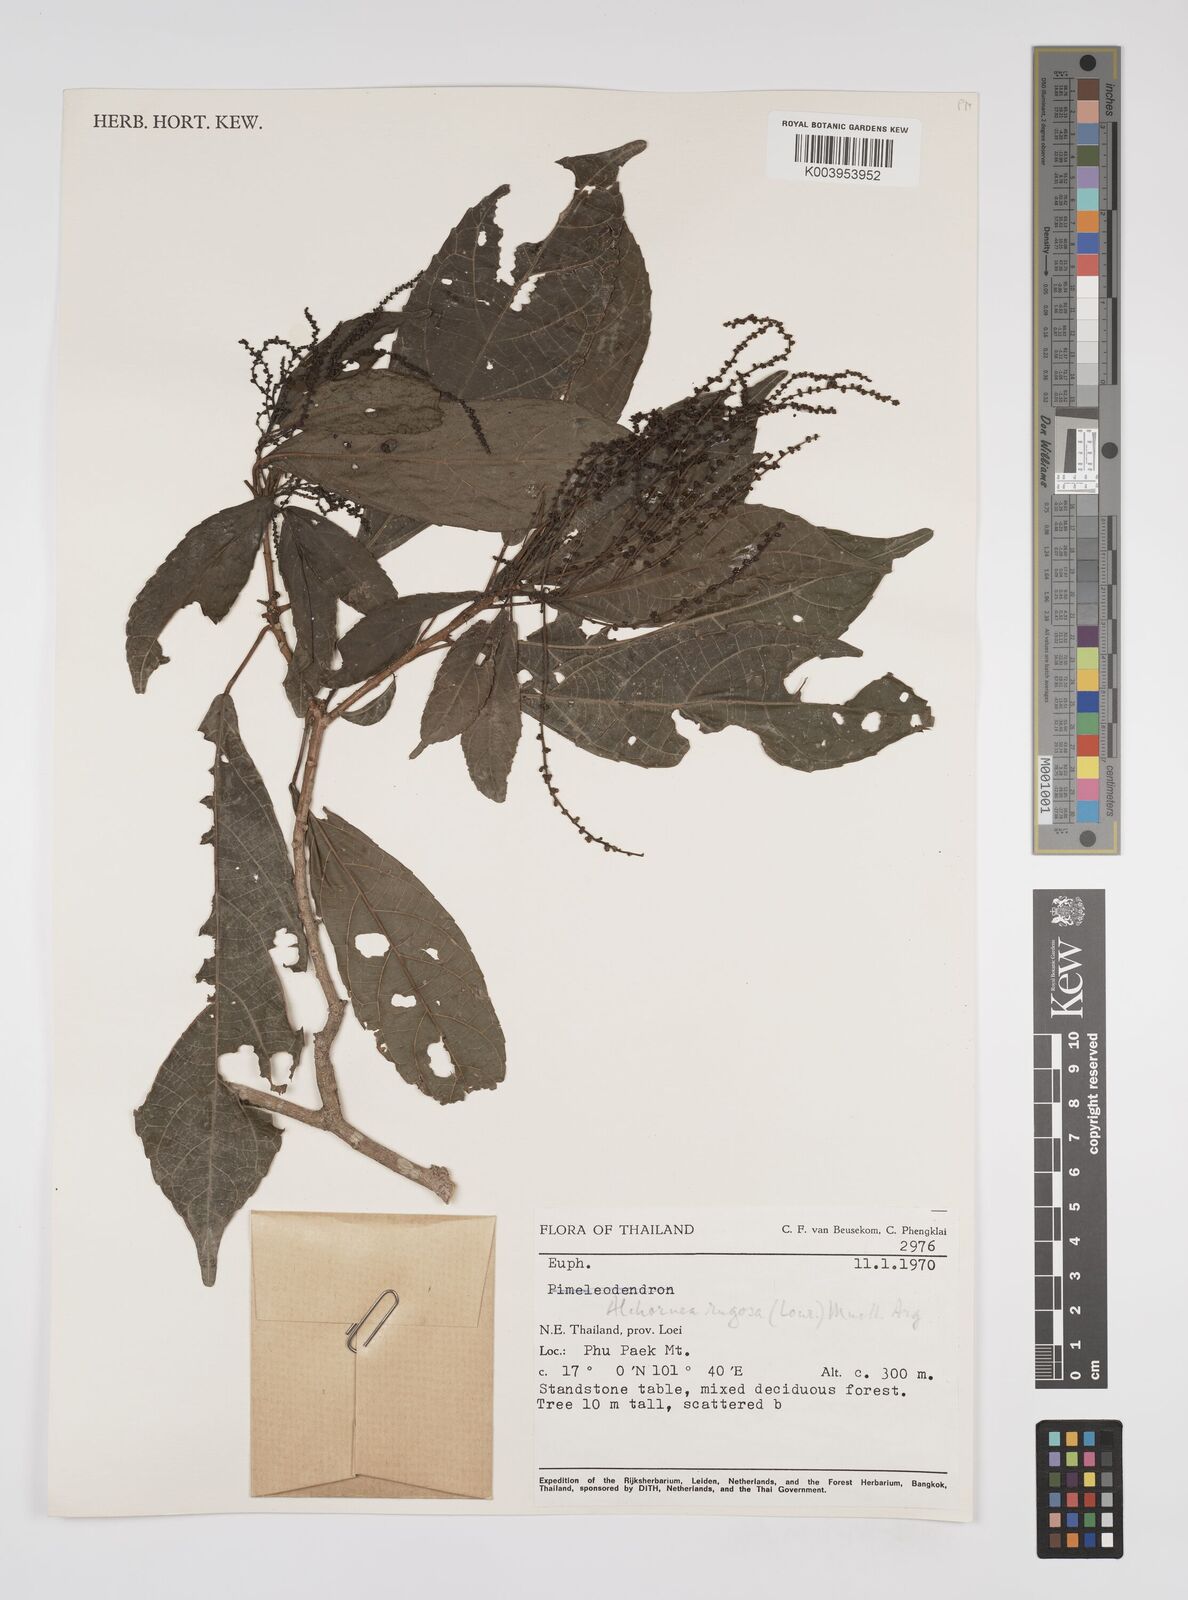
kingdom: Plantae
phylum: Tracheophyta
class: Magnoliopsida
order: Malpighiales
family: Euphorbiaceae
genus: Alchornea
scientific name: Alchornea rugosa
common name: Alchorntree
